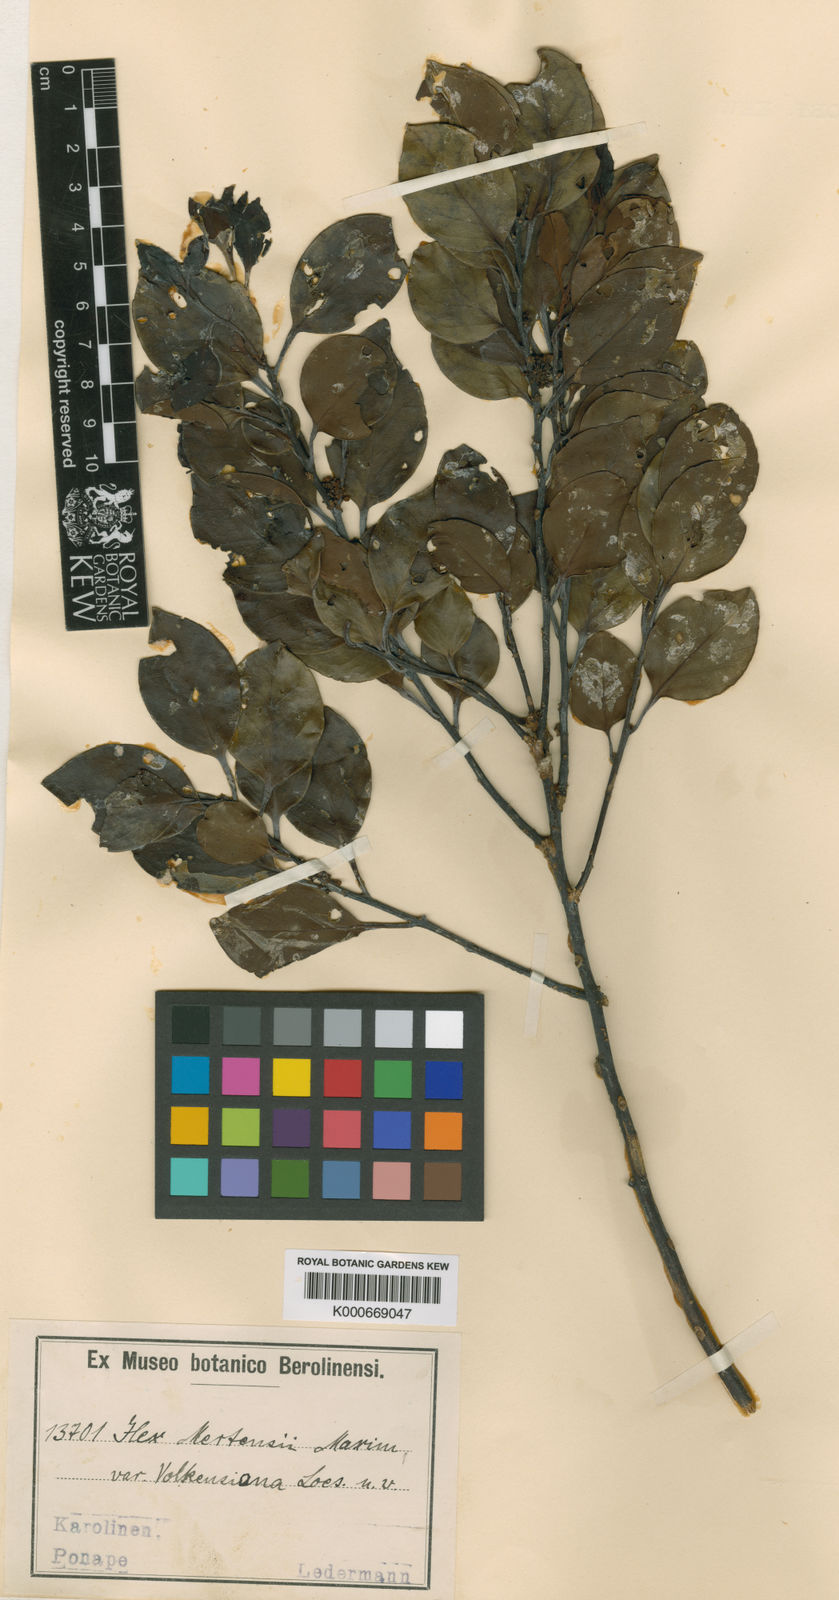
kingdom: Plantae
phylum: Tracheophyta
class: Magnoliopsida
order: Aquifoliales
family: Aquifoliaceae
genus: Ilex
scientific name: Ilex mertensii
